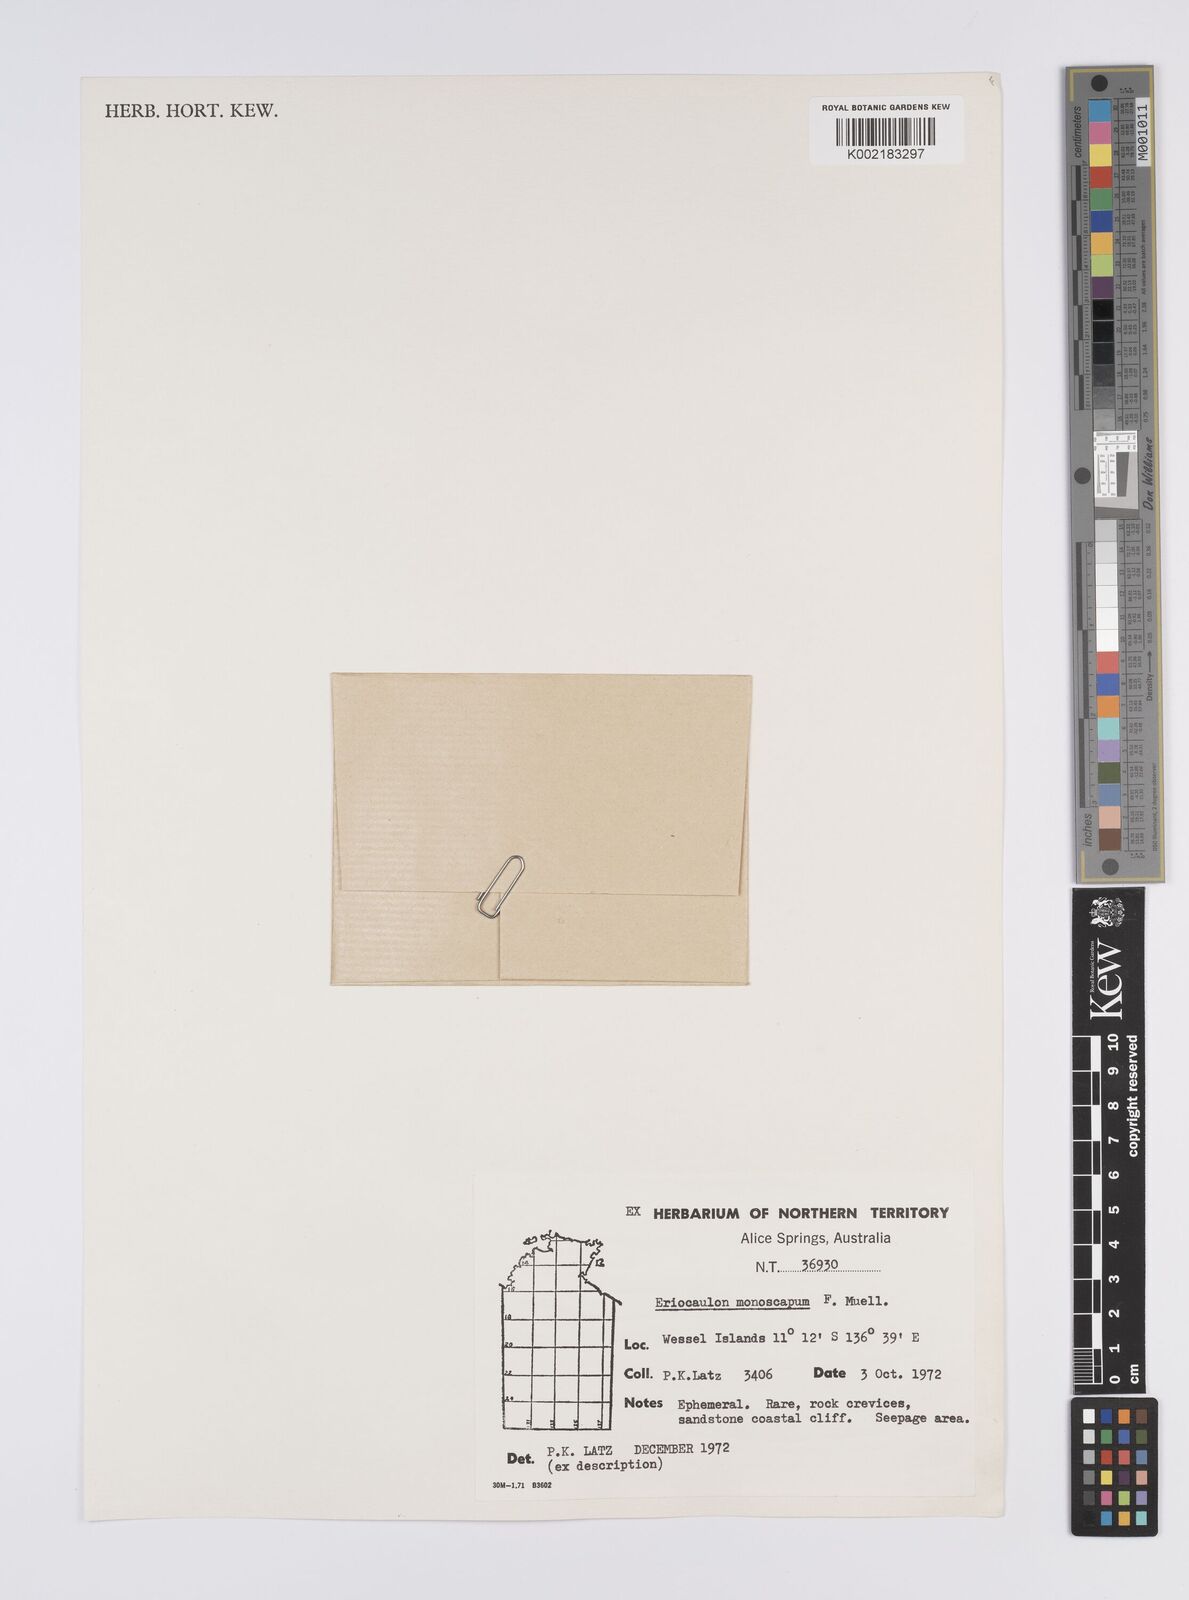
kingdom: Plantae
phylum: Tracheophyta
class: Liliopsida
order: Poales
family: Eriocaulaceae
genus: Eriocaulon
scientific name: Eriocaulon
